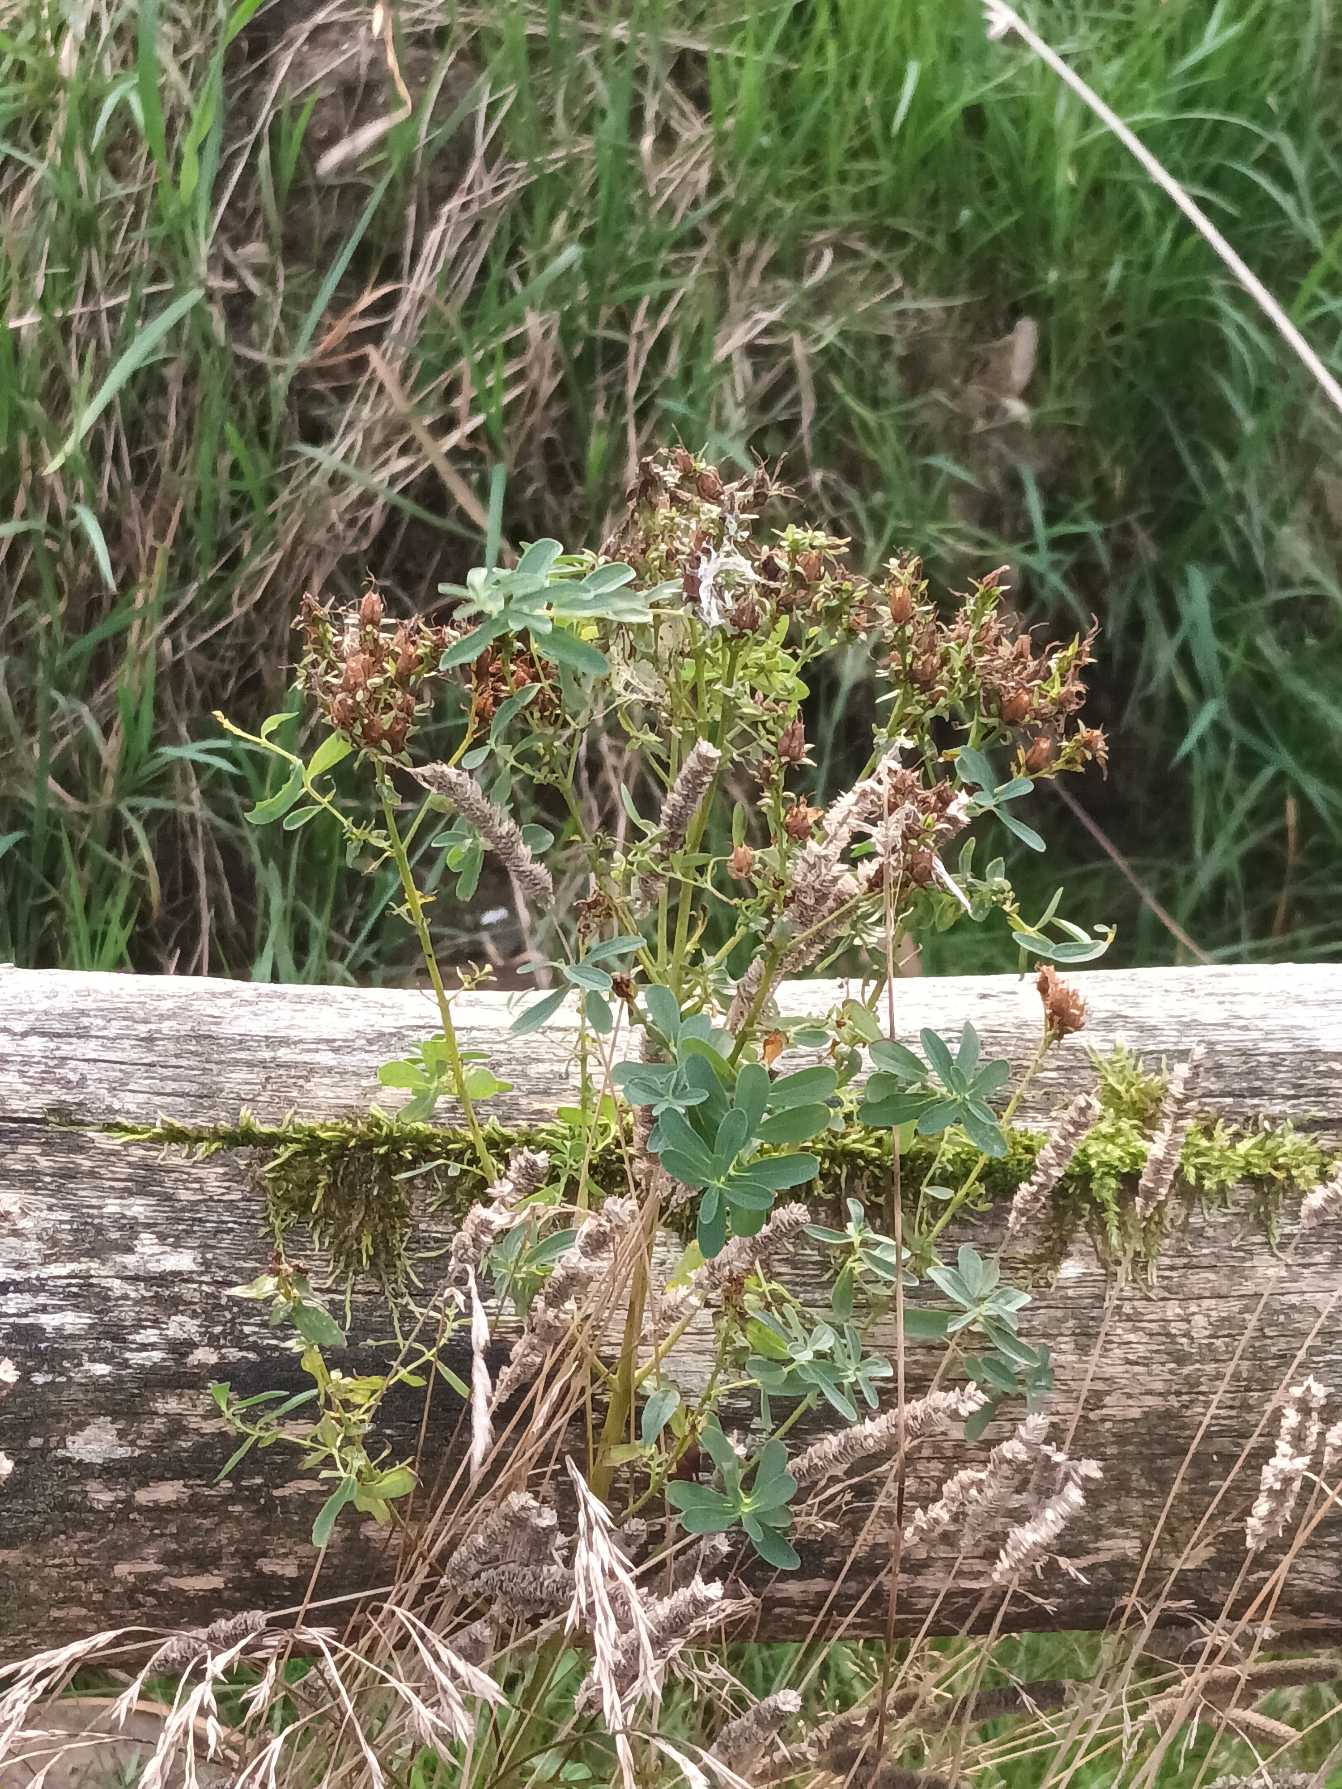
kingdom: Plantae
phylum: Tracheophyta
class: Magnoliopsida
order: Malpighiales
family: Hypericaceae
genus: Hypericum
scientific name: Hypericum perforatum
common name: Prikbladet perikon
